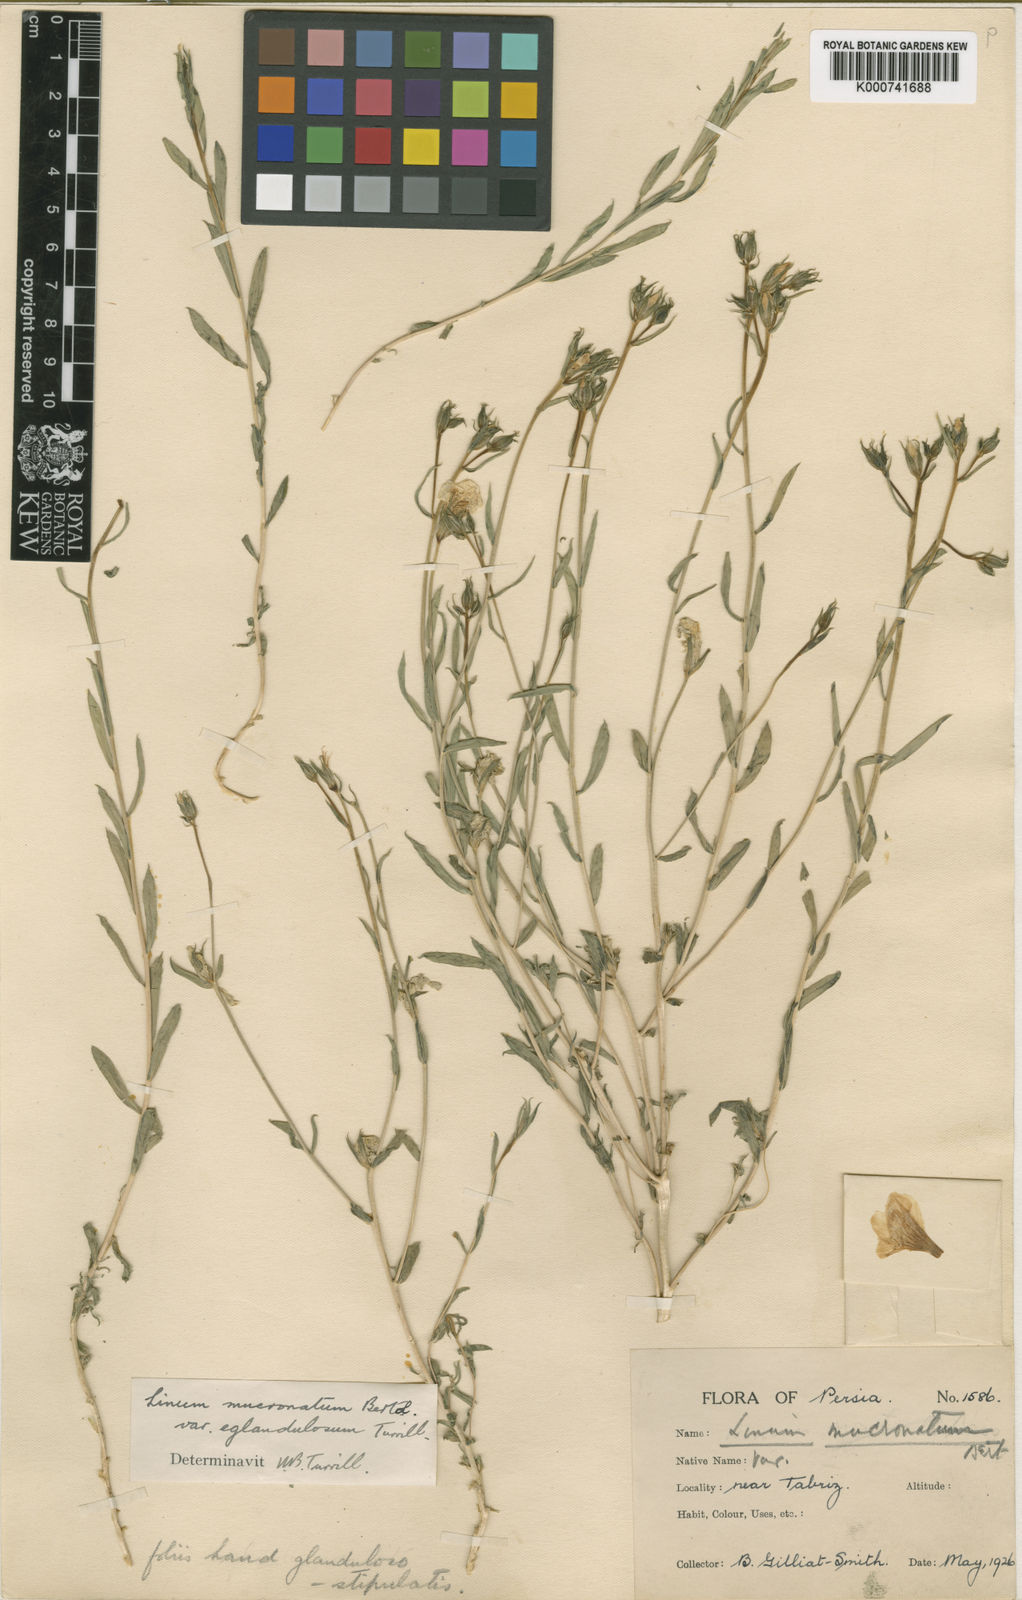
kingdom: Plantae
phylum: Tracheophyta
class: Magnoliopsida
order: Malpighiales
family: Linaceae
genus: Linum
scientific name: Linum mucronatum
